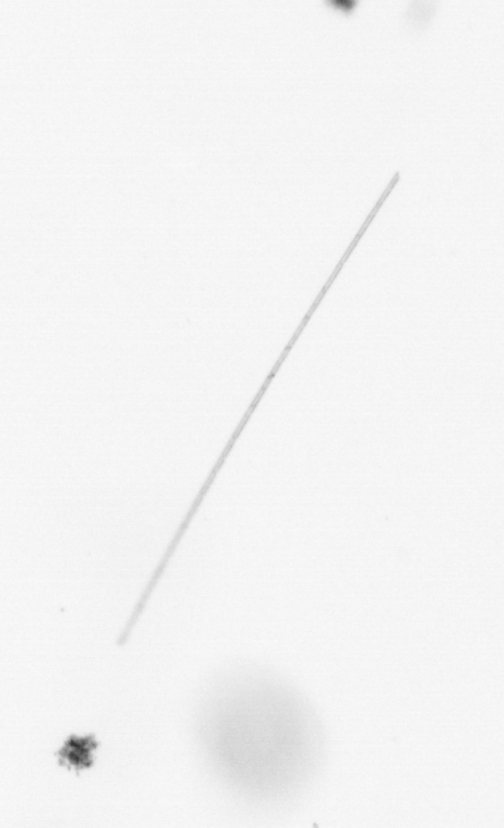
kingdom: Chromista
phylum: Ochrophyta
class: Bacillariophyceae
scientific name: Bacillariophyceae
